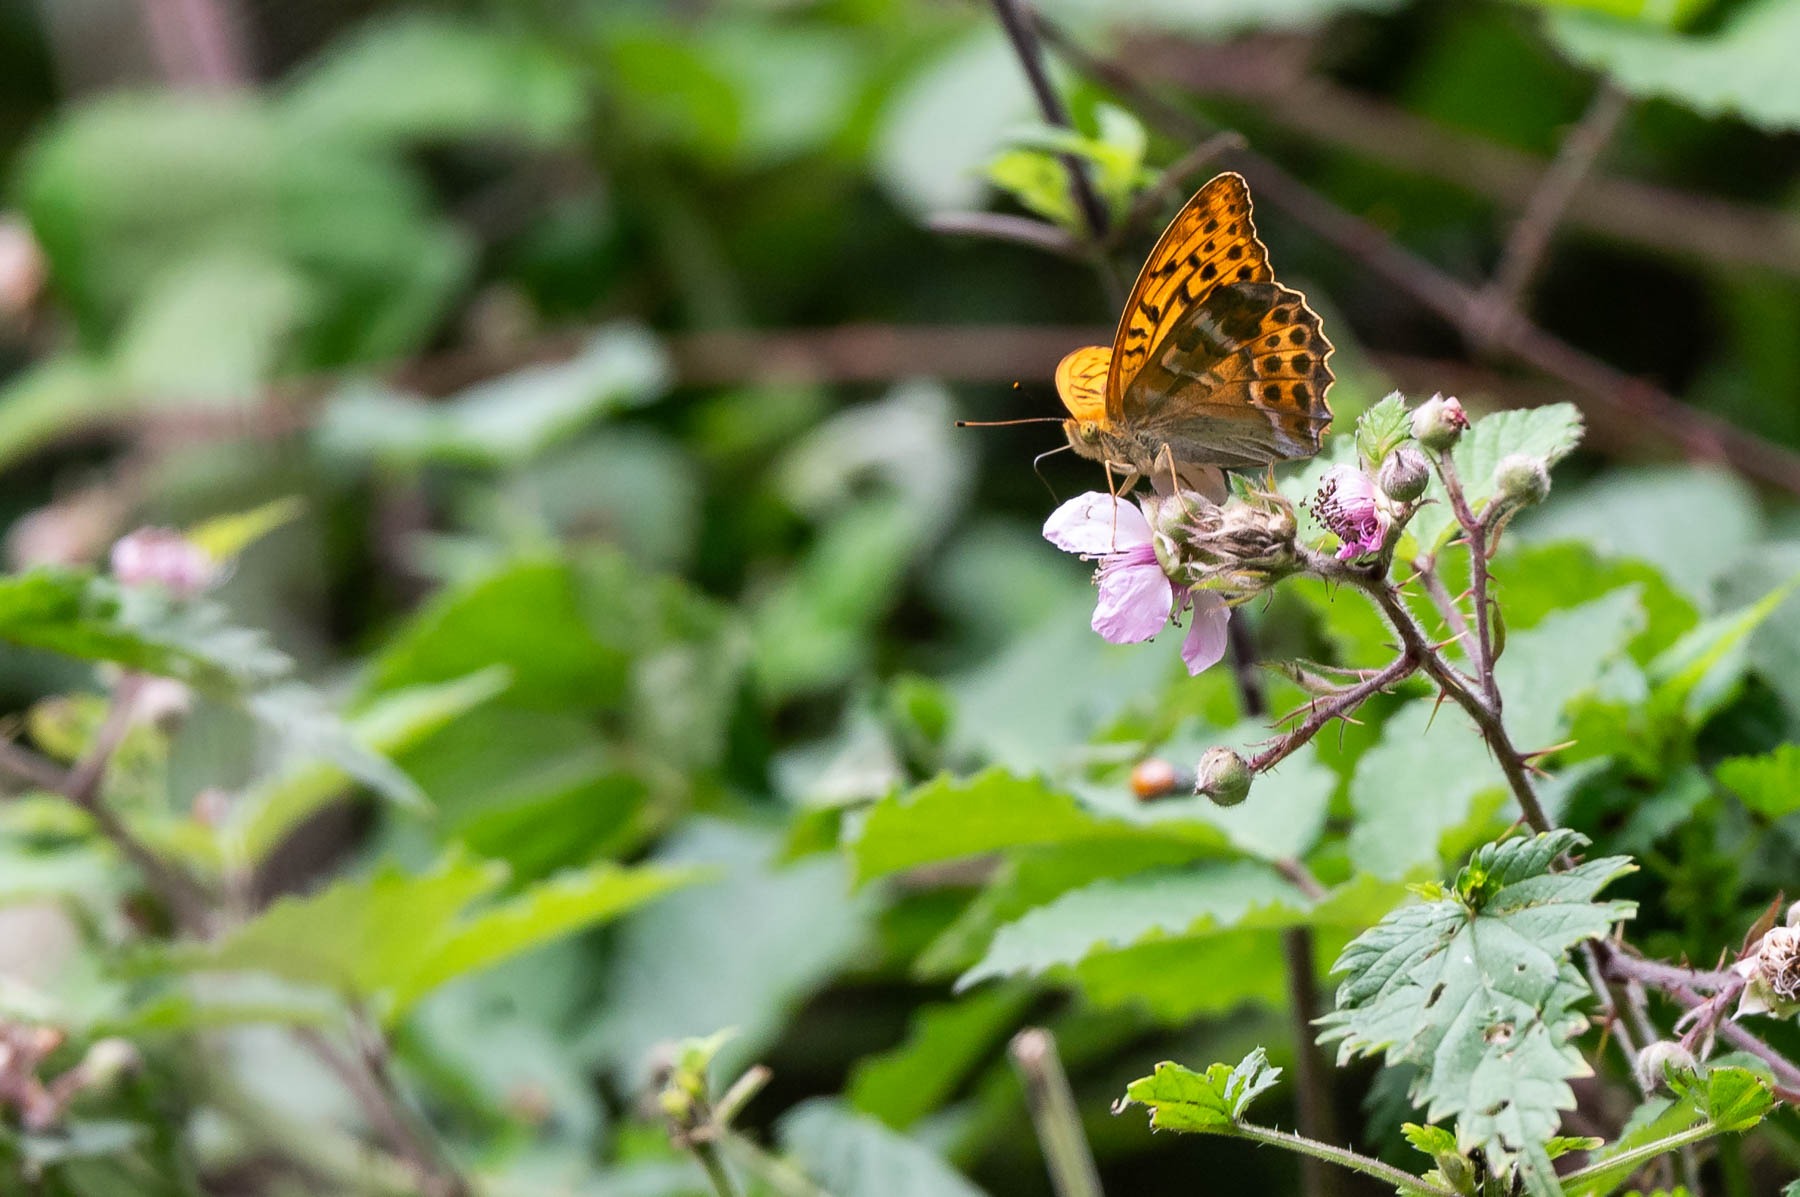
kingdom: Animalia
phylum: Arthropoda
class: Insecta
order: Lepidoptera
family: Nymphalidae
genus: Argynnis
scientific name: Argynnis paphia
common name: Kejserkåbe
